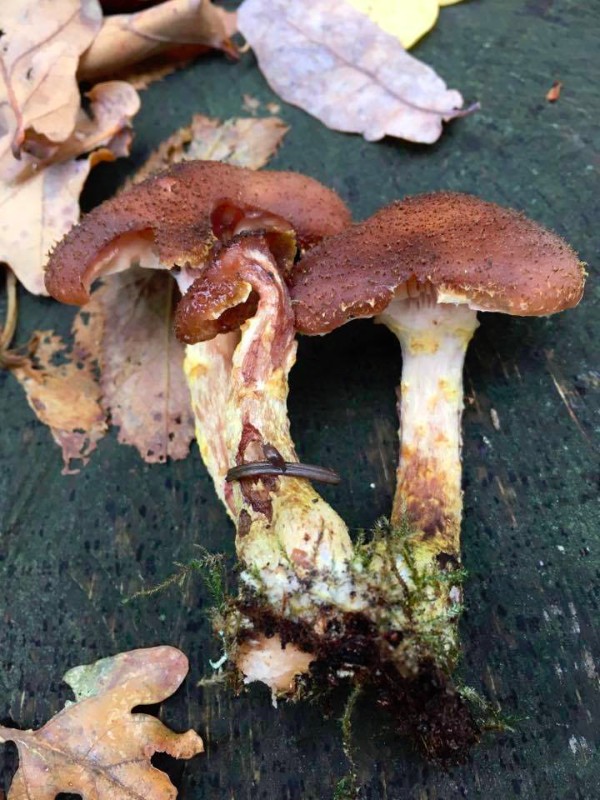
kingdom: Fungi
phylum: Basidiomycota
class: Agaricomycetes
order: Agaricales
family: Physalacriaceae
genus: Armillaria
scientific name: Armillaria lutea
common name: køllestokket honningsvamp
